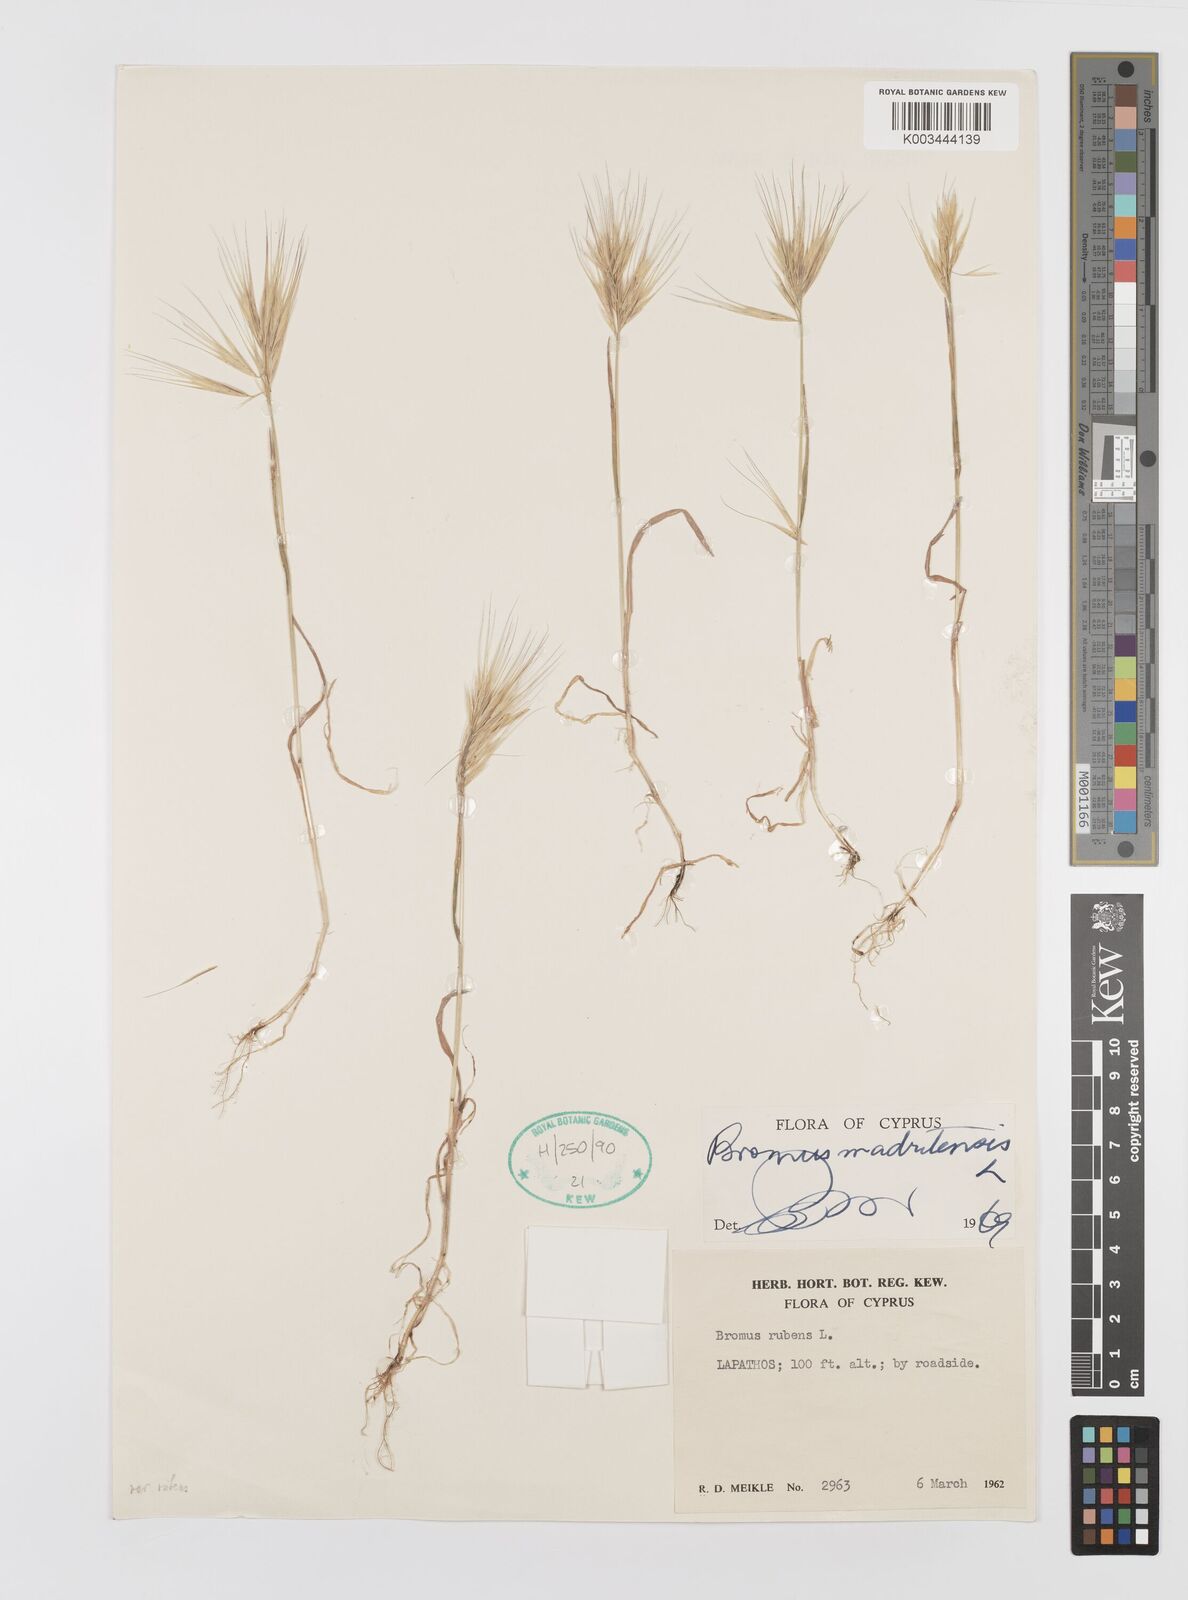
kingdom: Plantae
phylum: Tracheophyta
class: Liliopsida
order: Poales
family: Poaceae
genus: Bromus
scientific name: Bromus madritensis
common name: Compact brome
